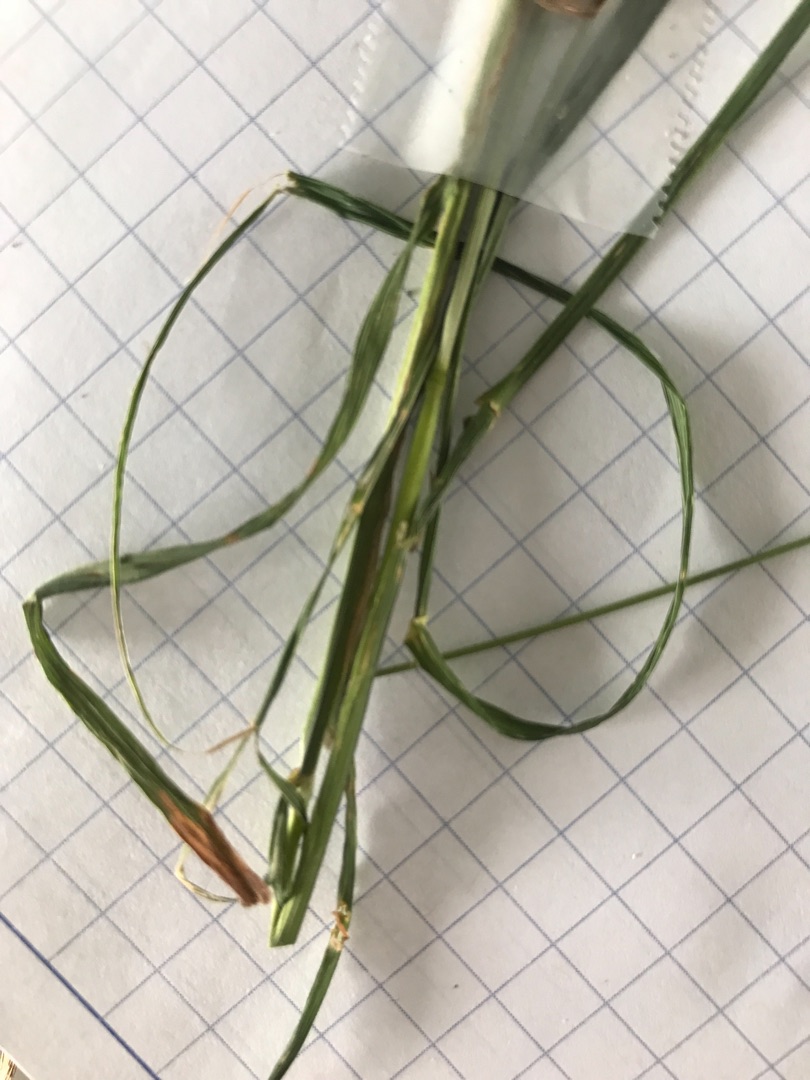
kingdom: Plantae
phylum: Tracheophyta
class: Liliopsida
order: Poales
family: Poaceae
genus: Dactylis
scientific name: Dactylis glomerata
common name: Skov-hundegræs
